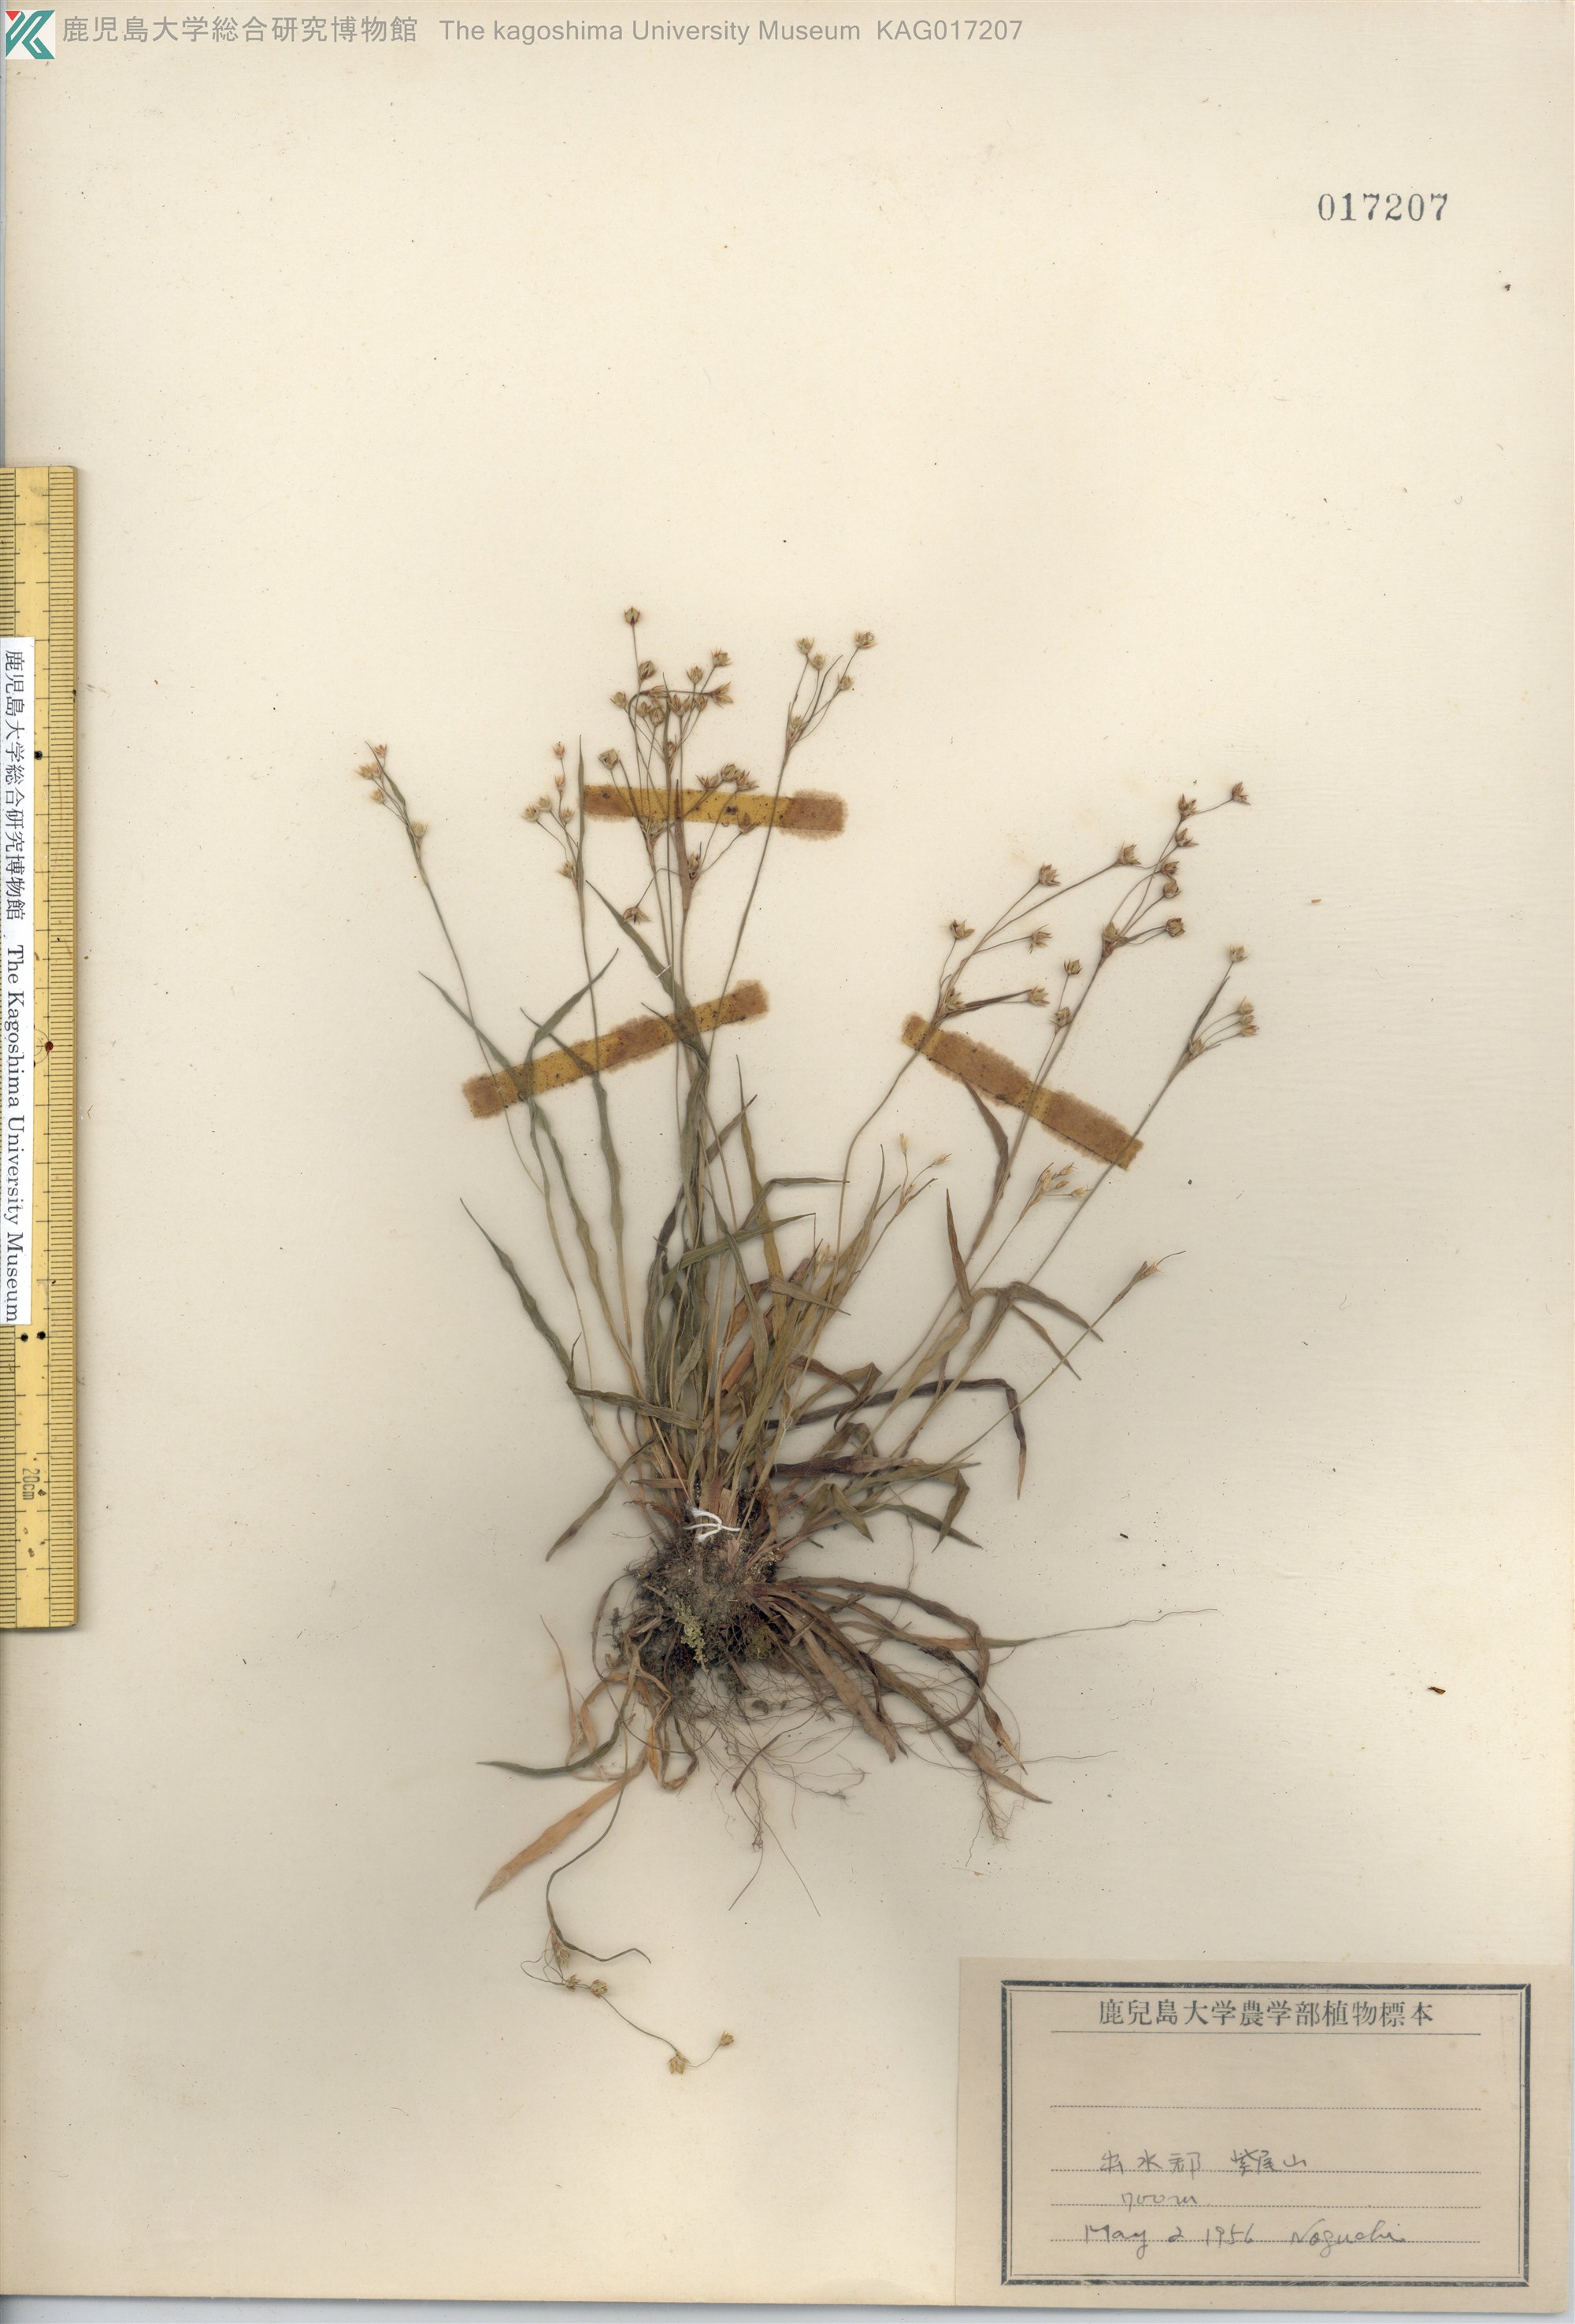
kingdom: Plantae
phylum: Tracheophyta
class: Liliopsida
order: Poales
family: Juncaceae
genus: Luzula
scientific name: Luzula plumosa
